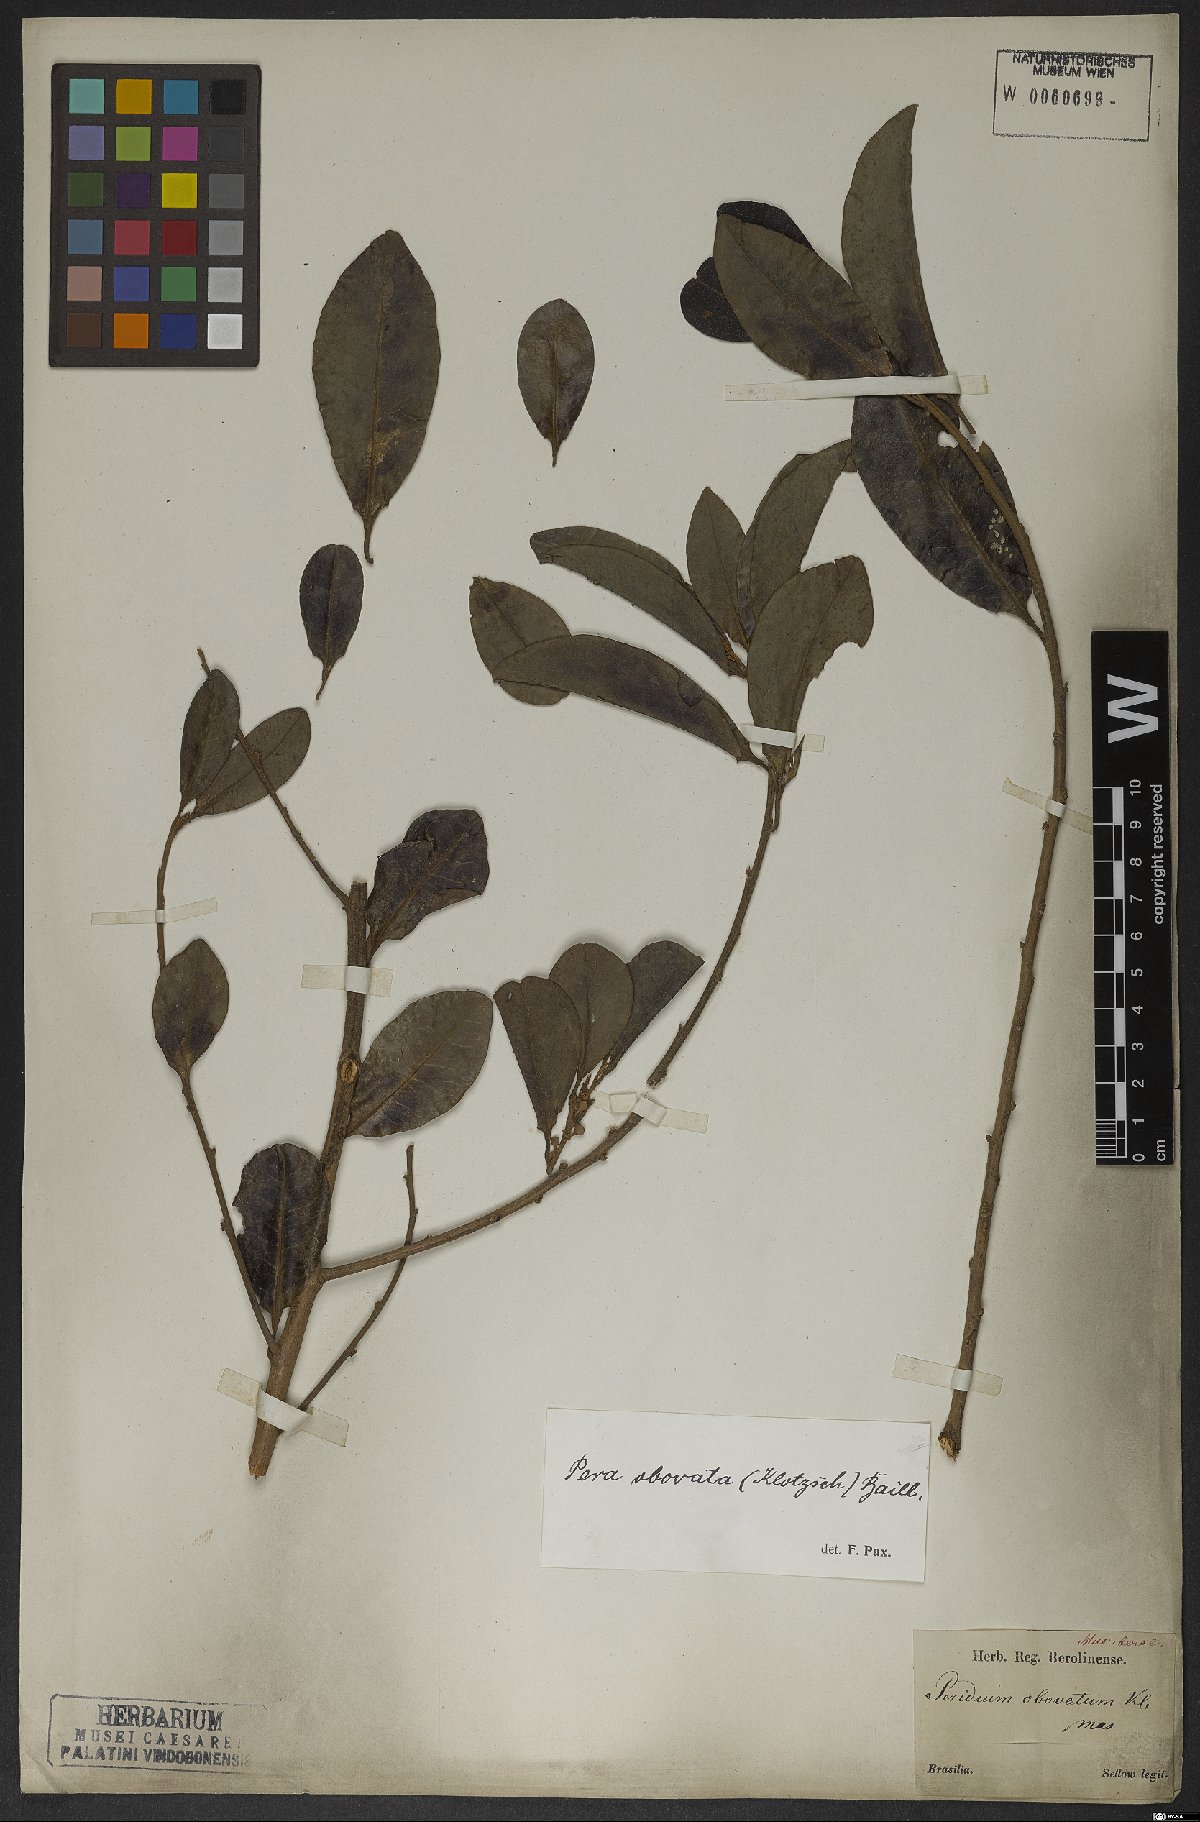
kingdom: Plantae
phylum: Tracheophyta
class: Magnoliopsida
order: Malpighiales
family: Peraceae
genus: Pera
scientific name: Pera glabrata
